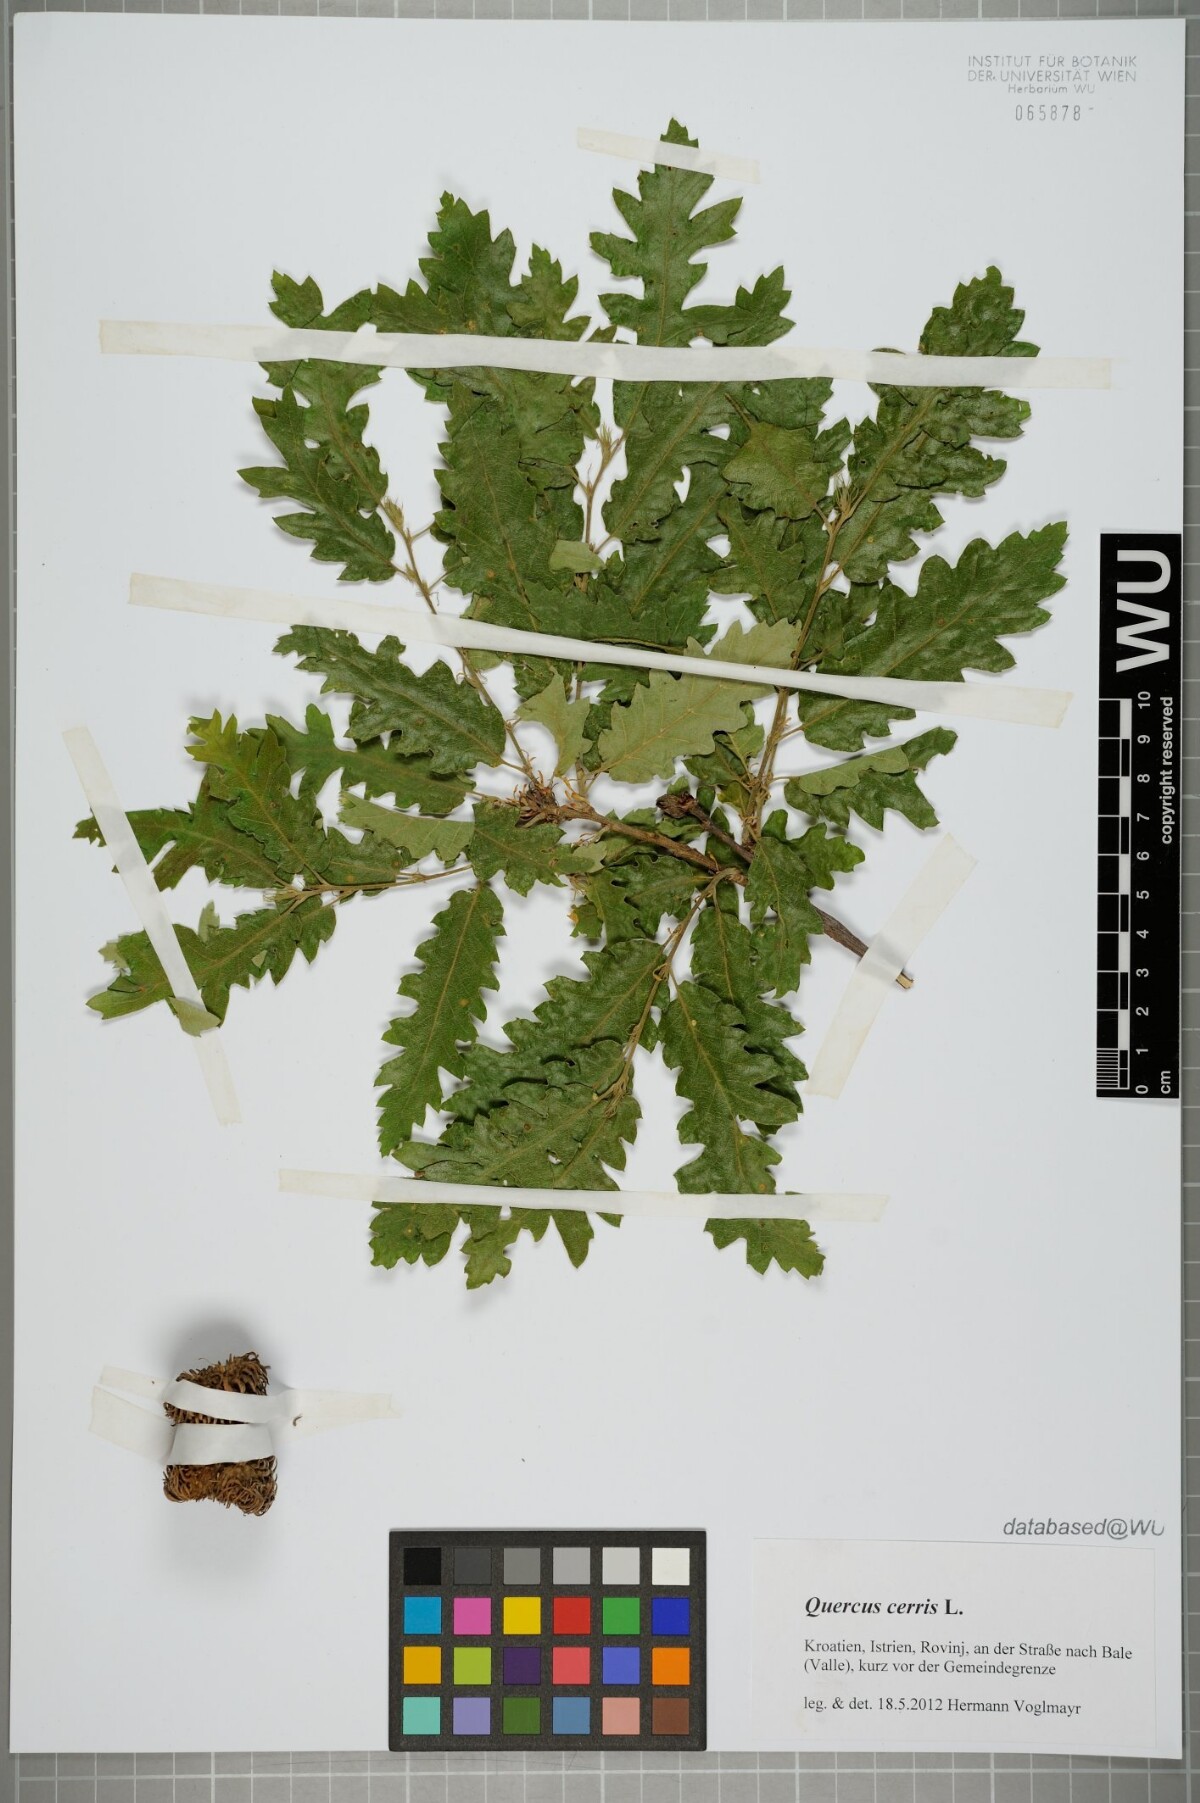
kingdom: Plantae
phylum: Tracheophyta
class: Magnoliopsida
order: Fagales
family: Fagaceae
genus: Quercus
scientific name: Quercus cerris
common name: Turkey oak
